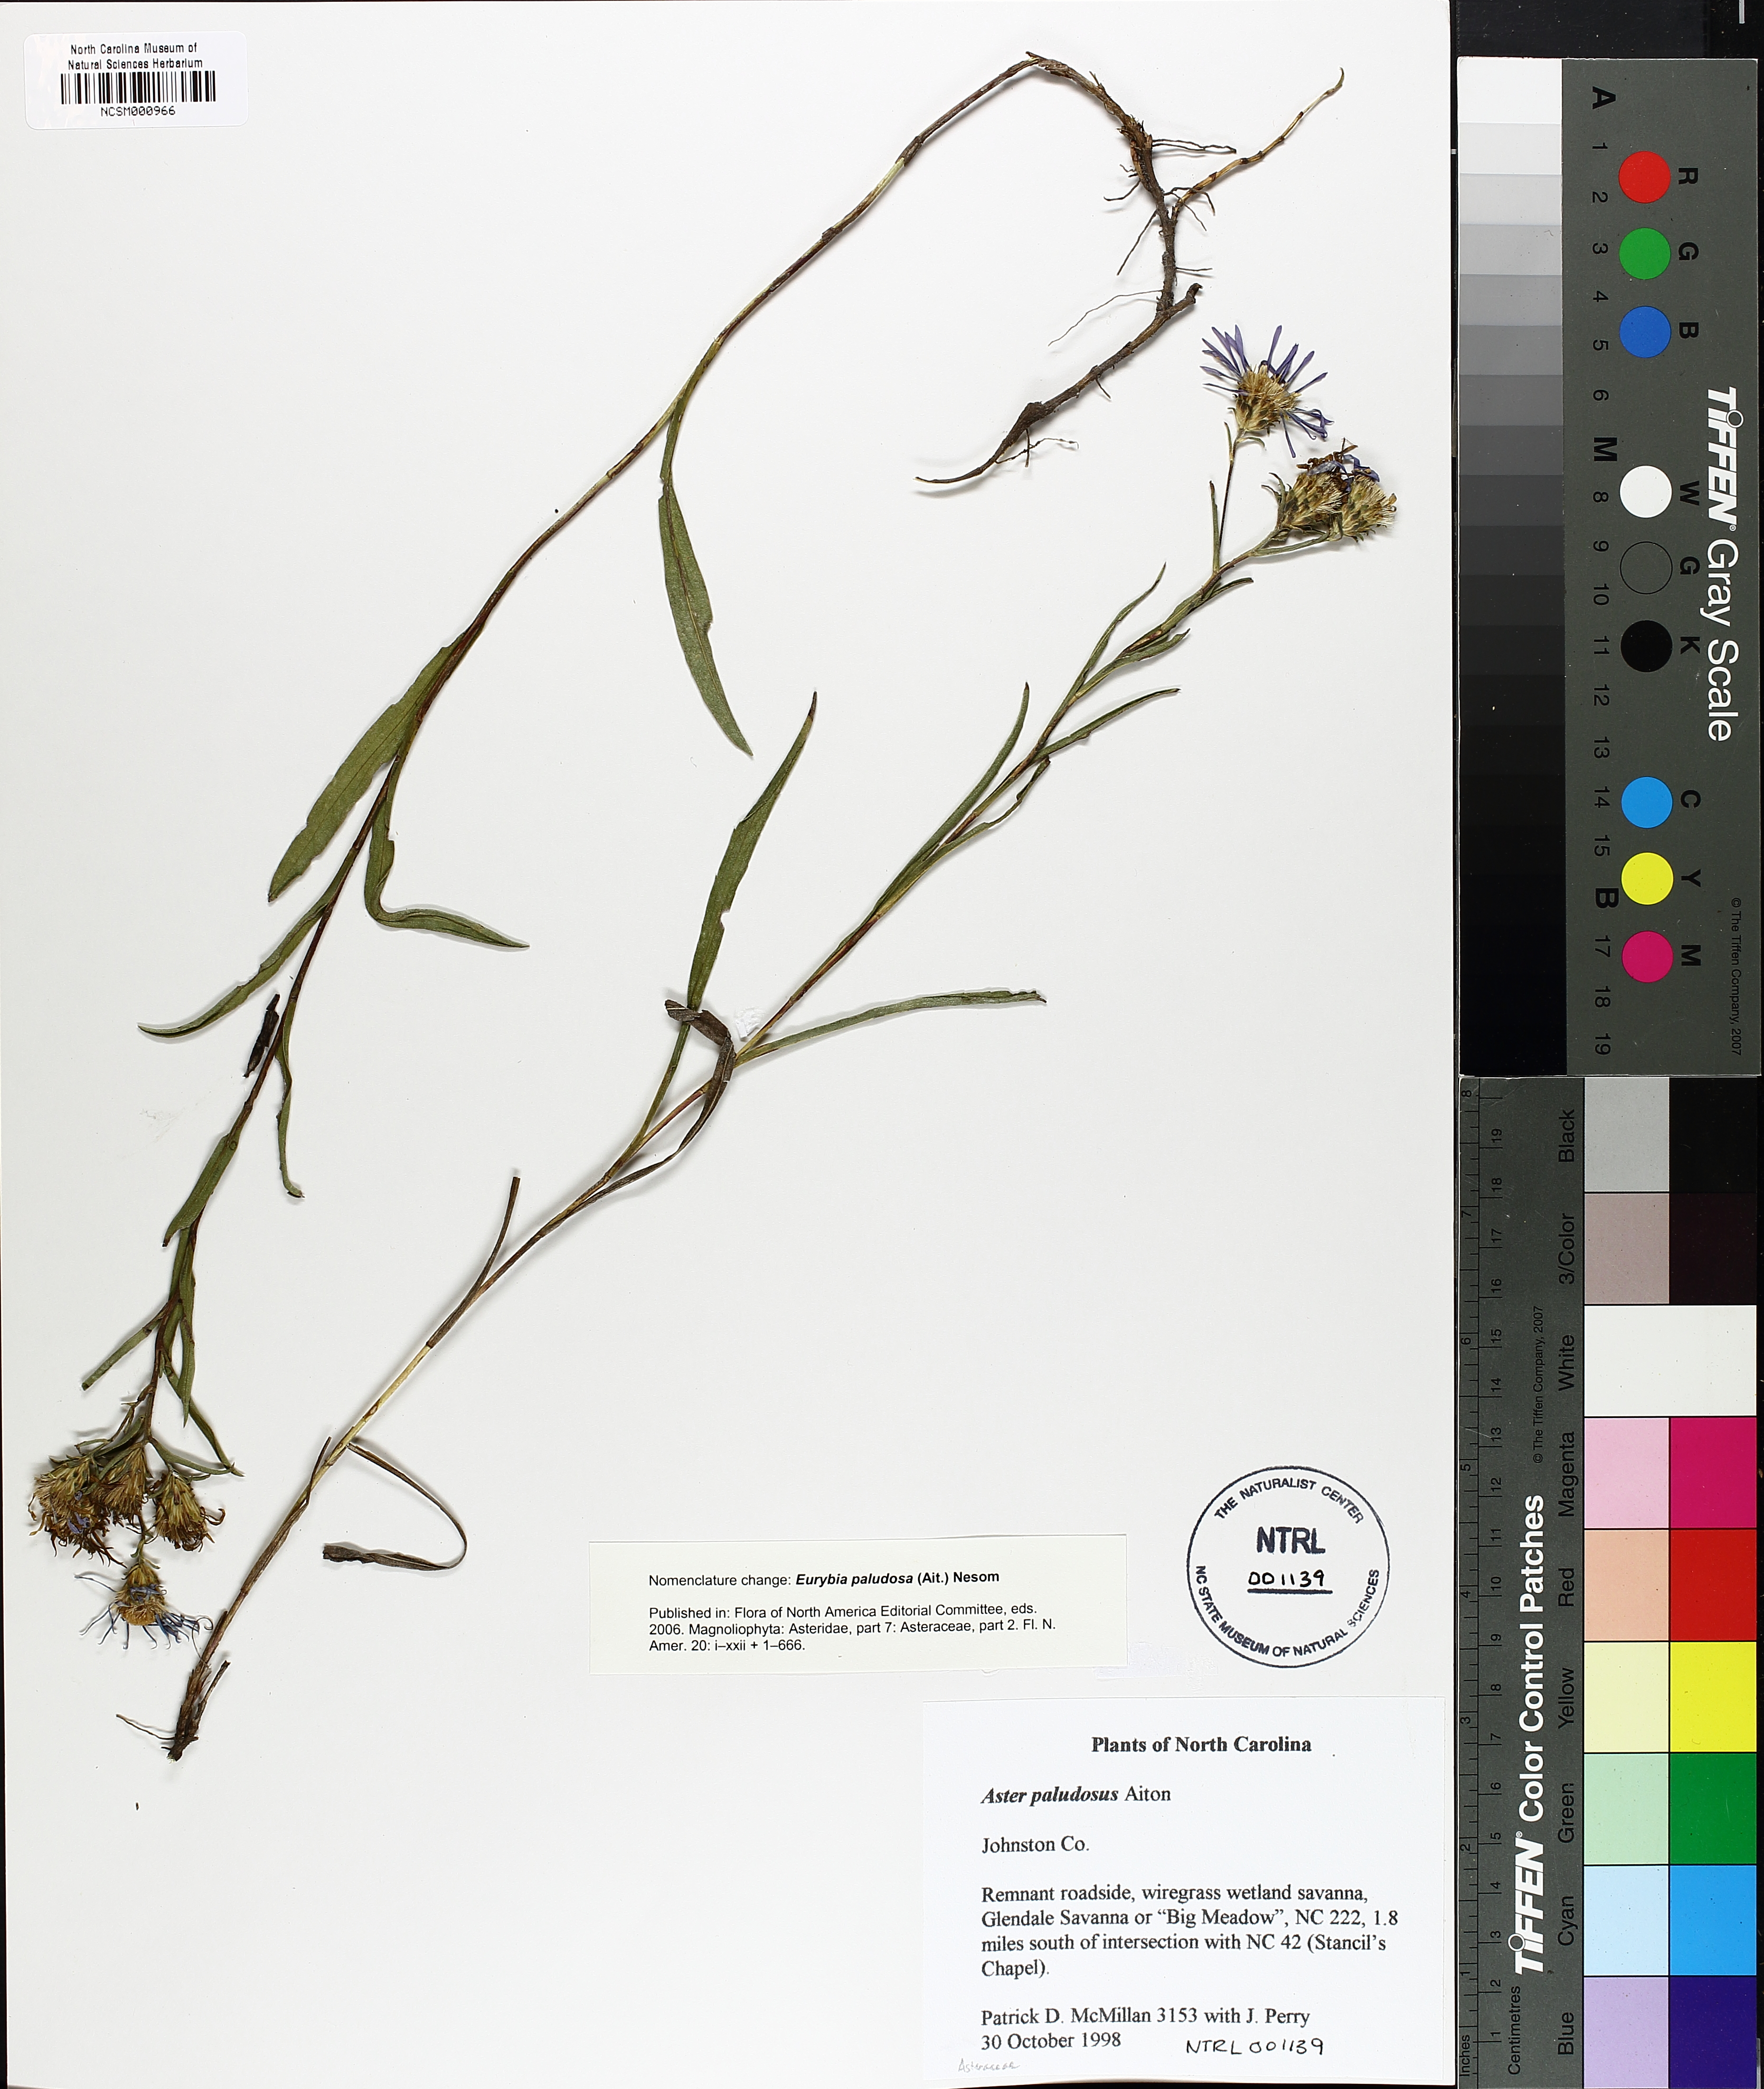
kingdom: Plantae
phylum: Tracheophyta
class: Magnoliopsida
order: Asterales
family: Asteraceae
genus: Eurybia
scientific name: Eurybia paludosa
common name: Southern swamp aster
